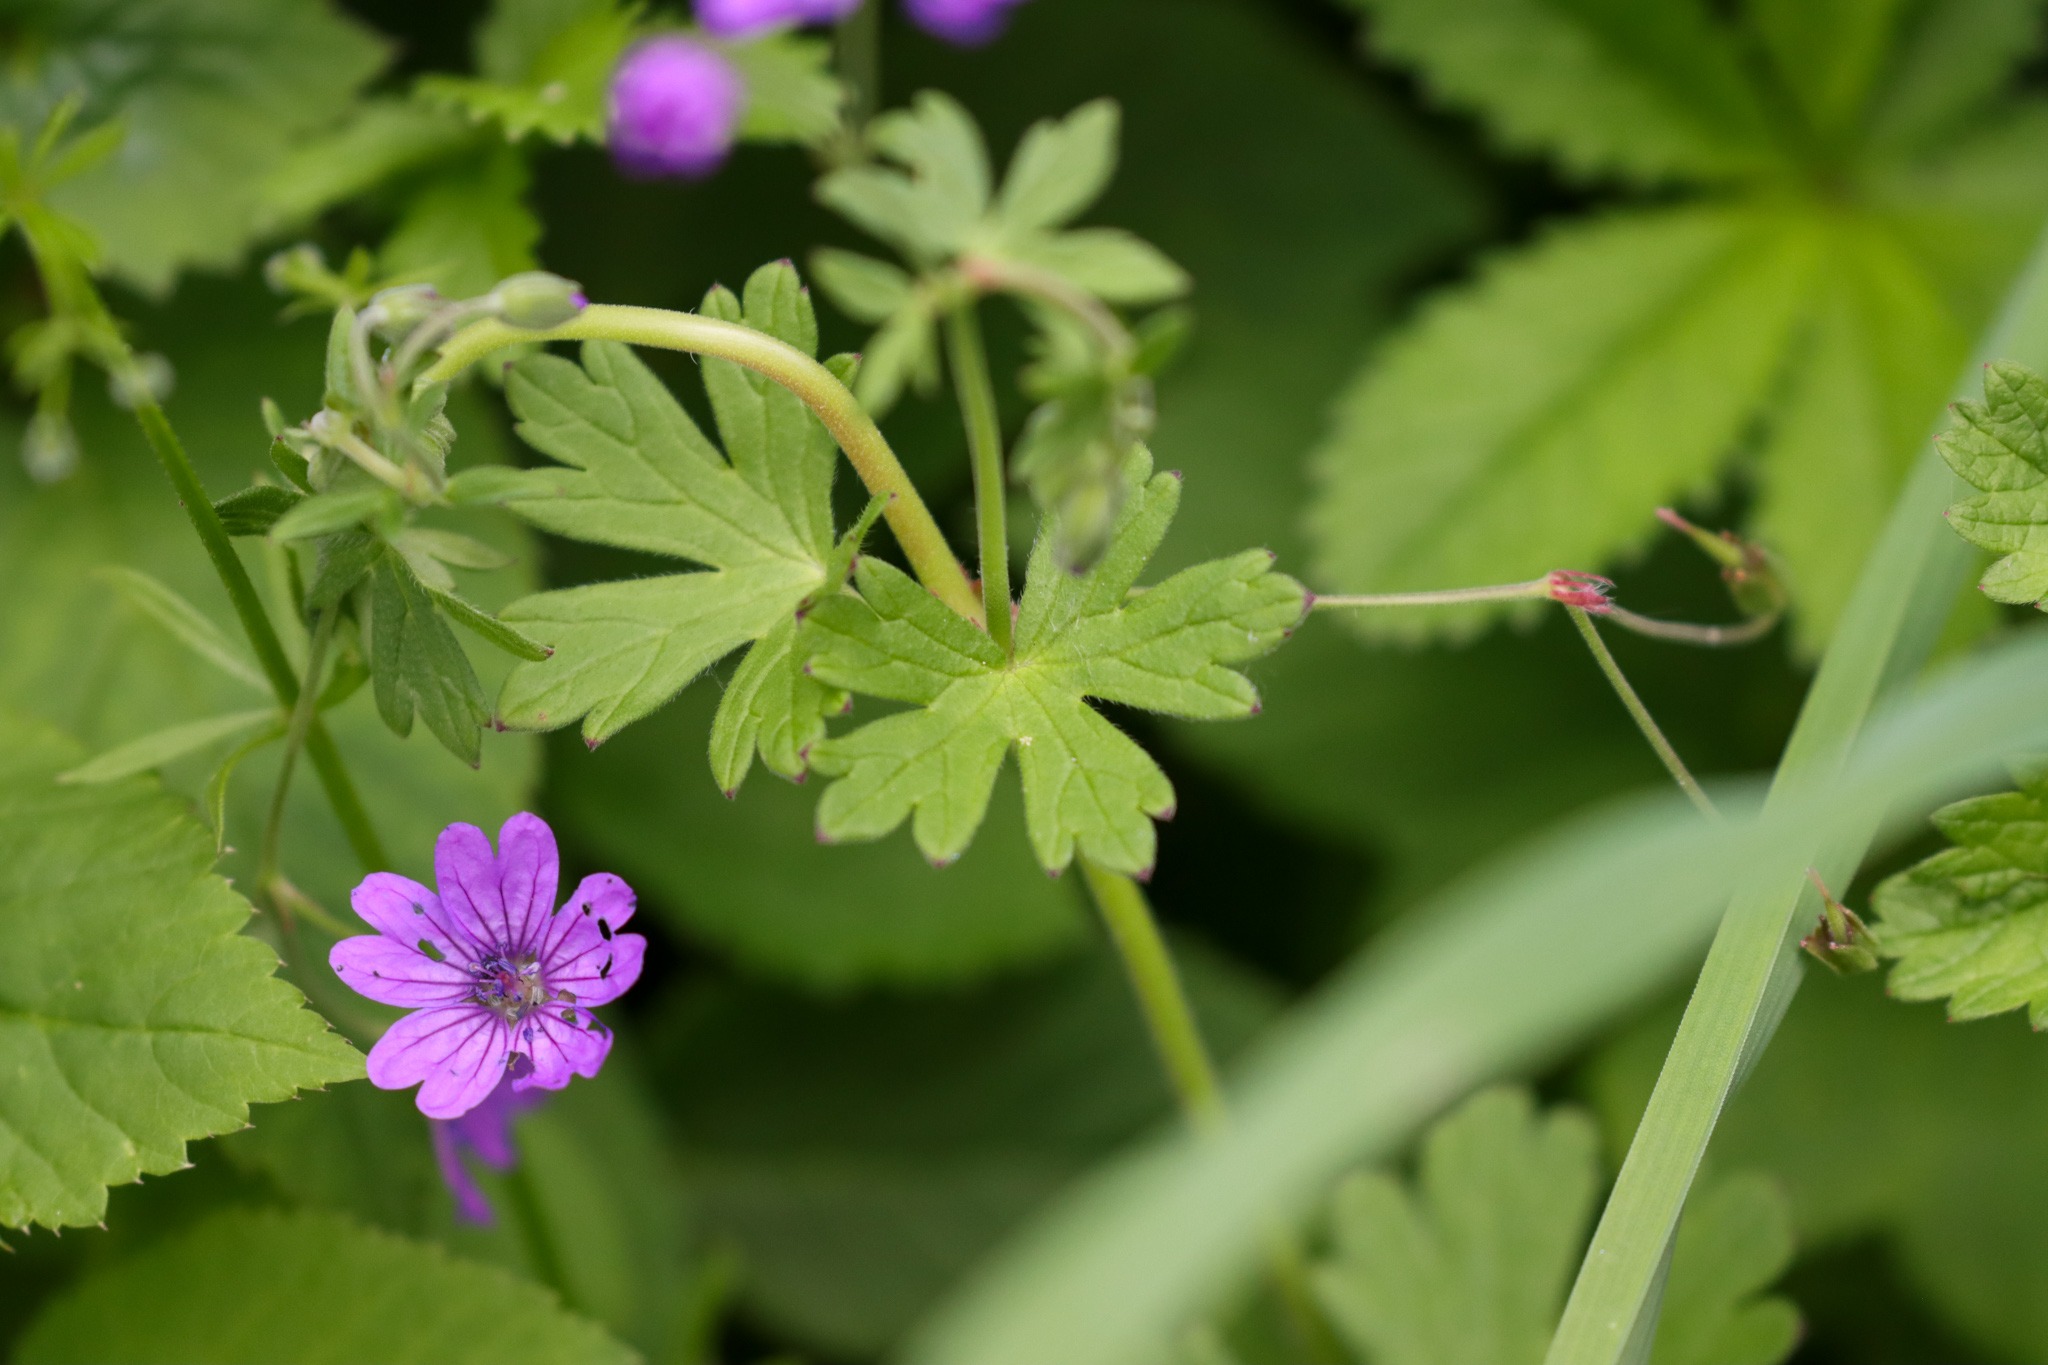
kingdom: Plantae
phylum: Tracheophyta
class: Magnoliopsida
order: Geraniales
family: Geraniaceae
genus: Geranium
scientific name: Geranium pyrenaicum
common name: Pyrenæisk storkenæb
